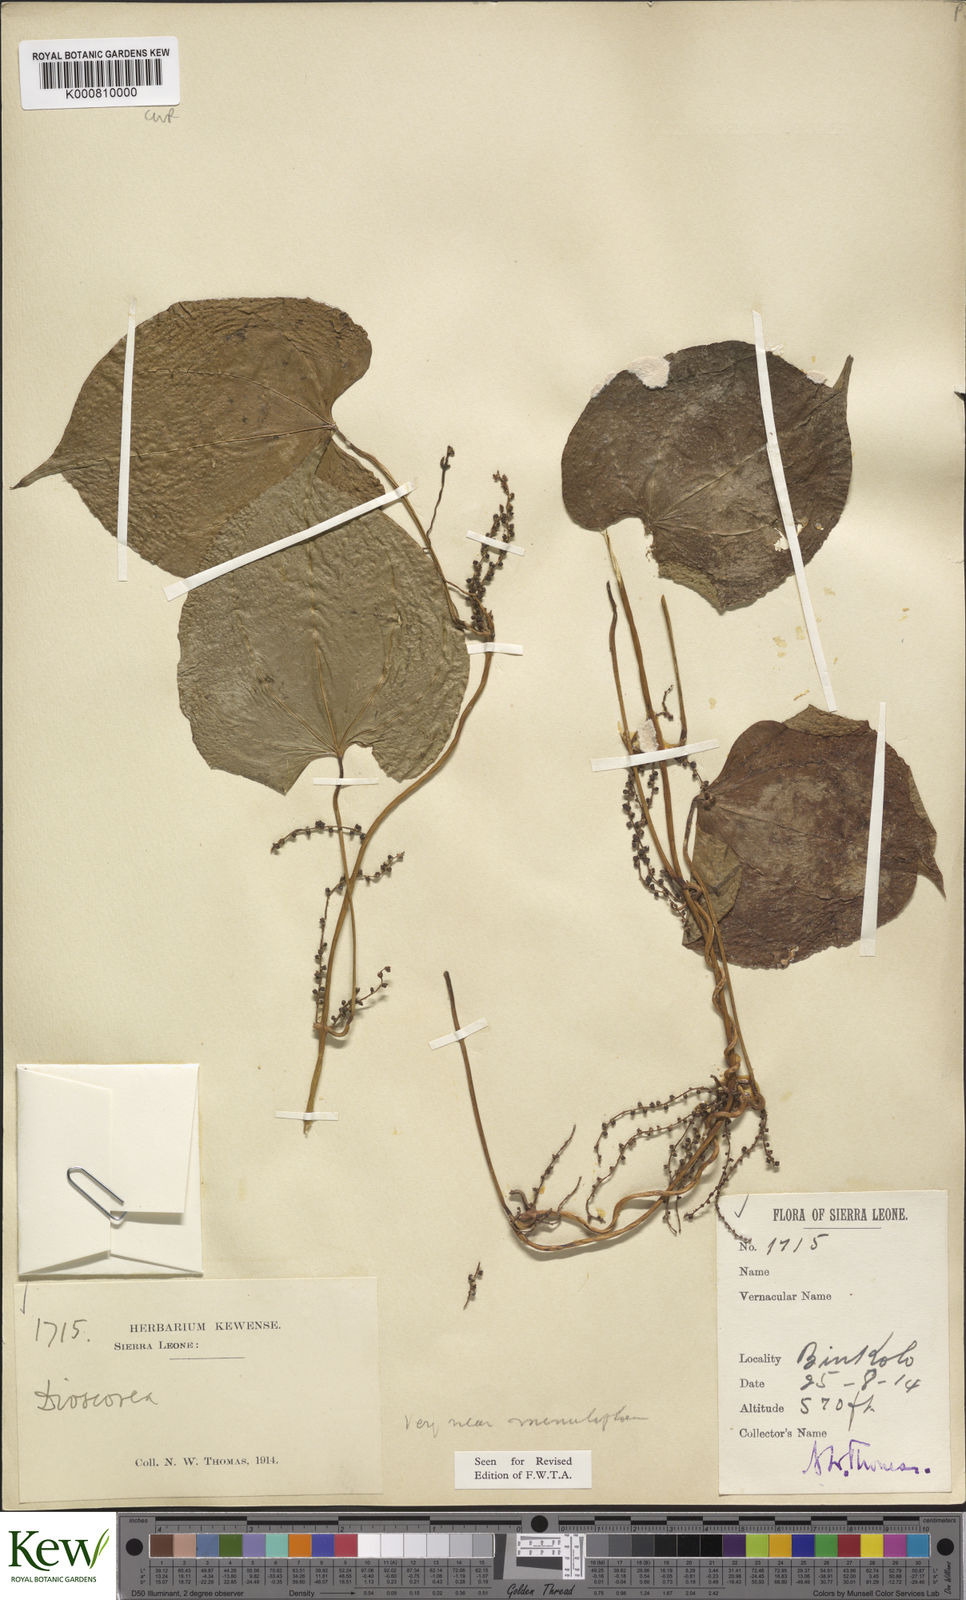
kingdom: Plantae
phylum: Tracheophyta
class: Liliopsida
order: Dioscoreales
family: Dioscoreaceae
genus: Dioscorea
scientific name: Dioscorea minutiflora
